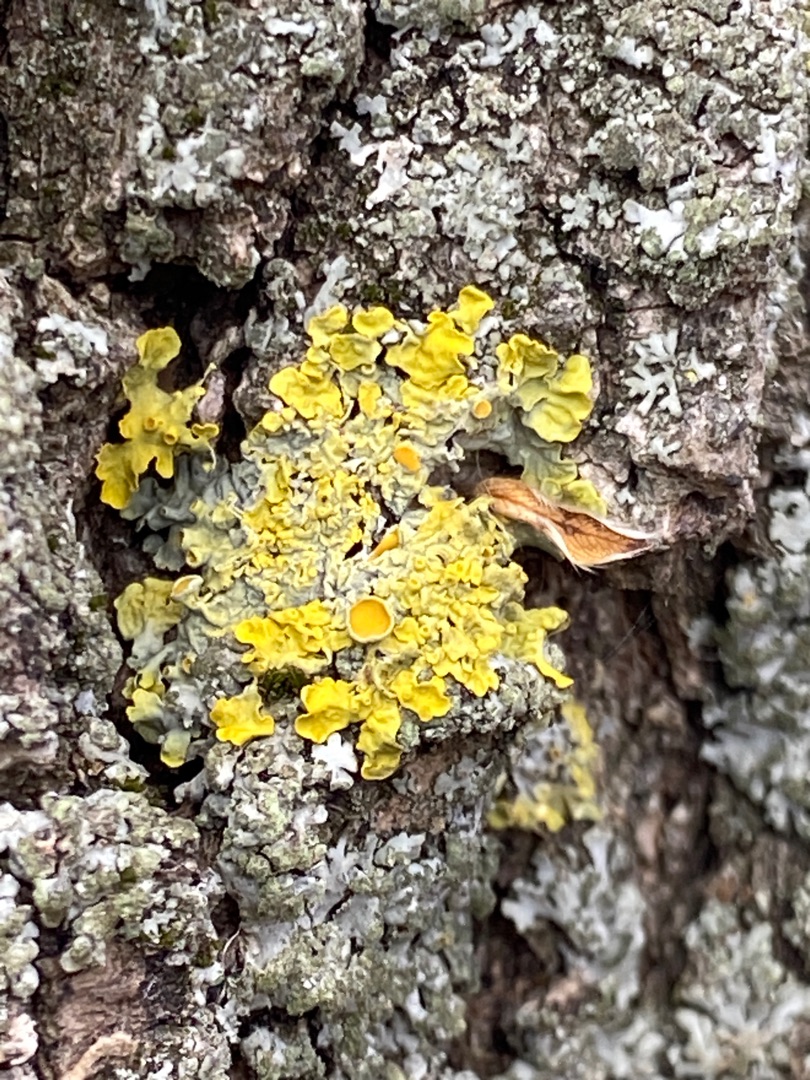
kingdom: Fungi
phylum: Ascomycota
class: Lecanoromycetes
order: Teloschistales
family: Teloschistaceae
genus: Xanthoria
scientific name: Xanthoria parietina
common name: Almindelig væggelav
